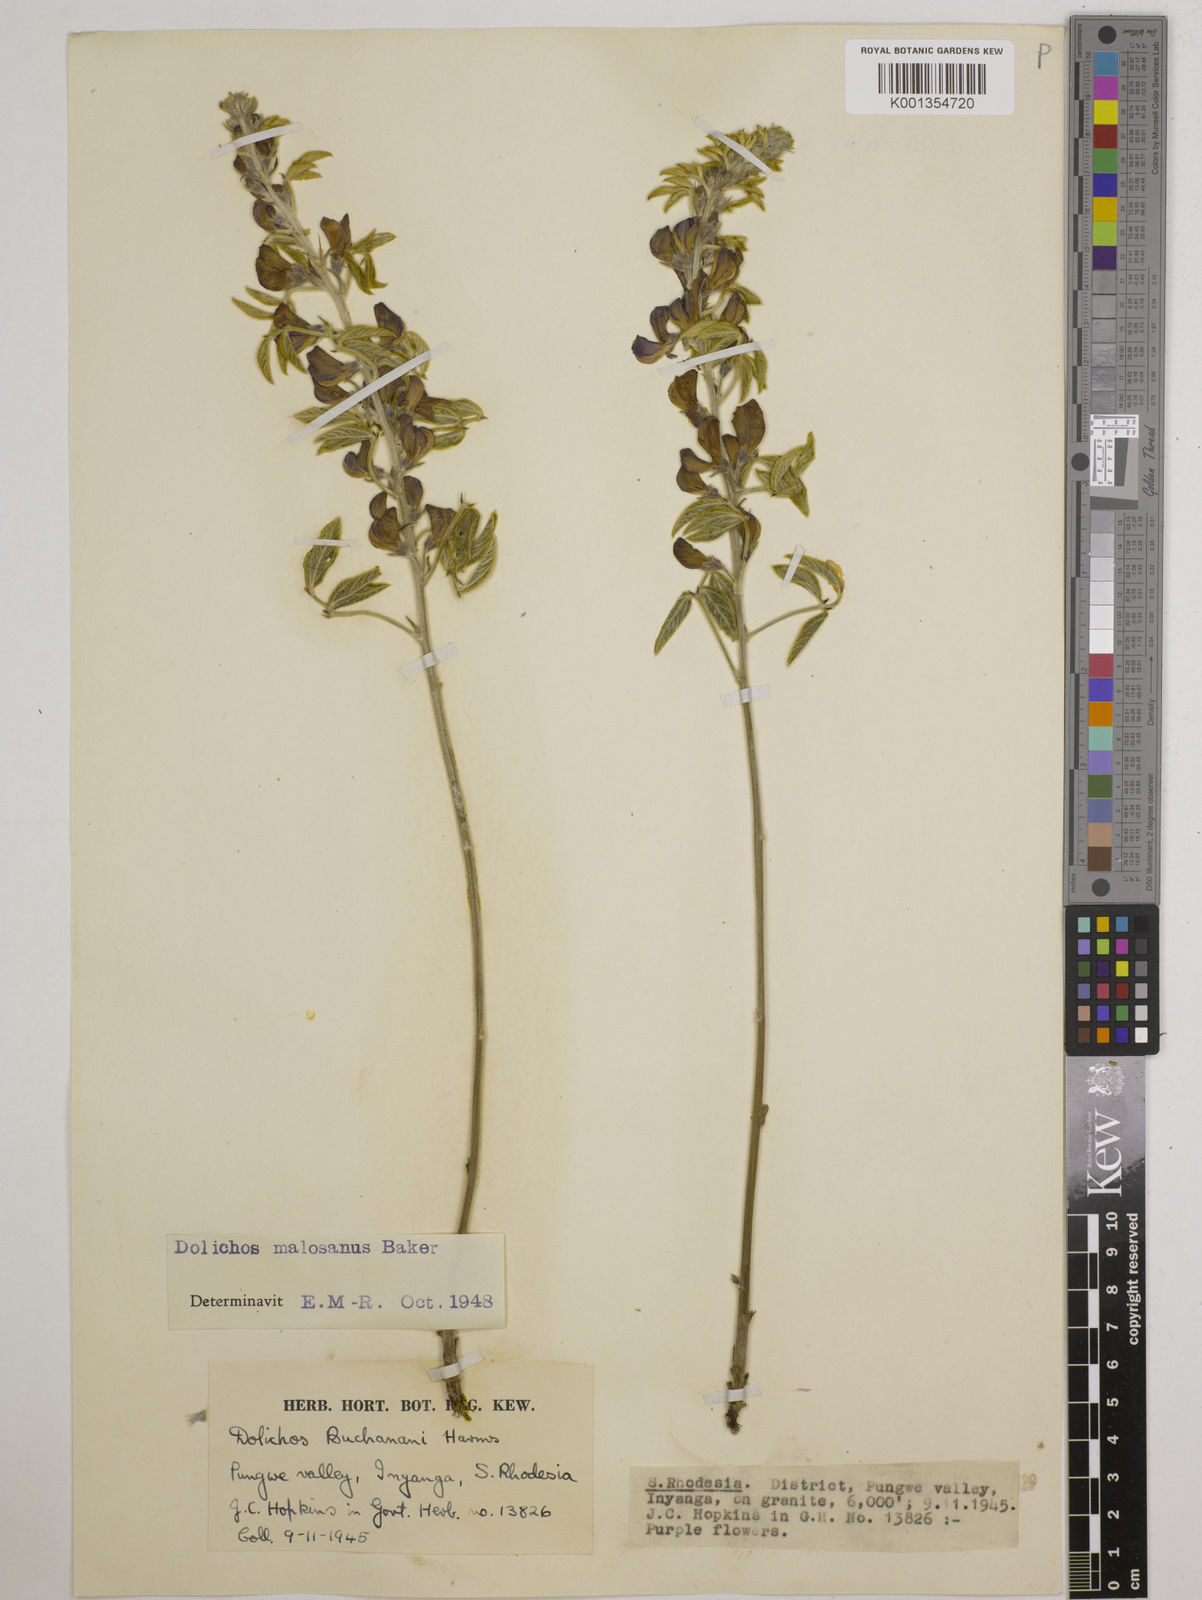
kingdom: Plantae
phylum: Tracheophyta
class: Magnoliopsida
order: Fabales
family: Fabaceae
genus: Dolichos
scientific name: Dolichos kilimandscharicus
